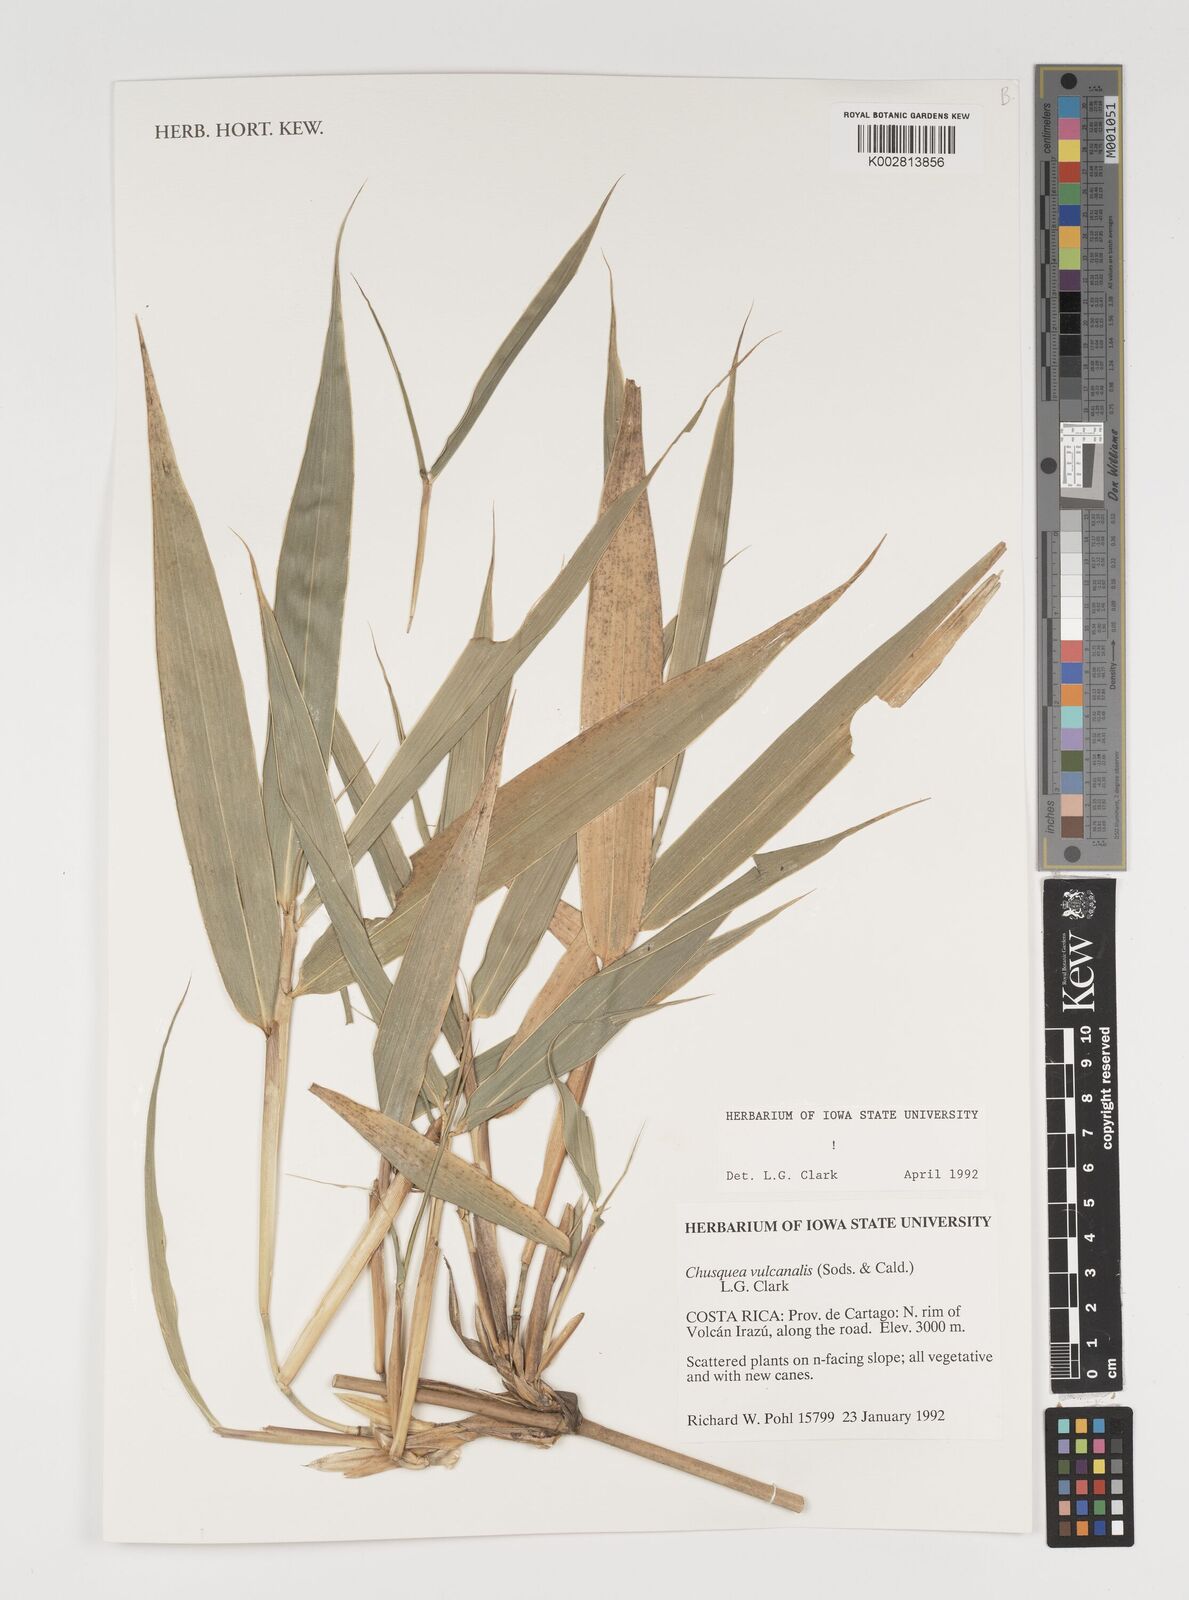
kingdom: Plantae
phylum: Tracheophyta
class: Liliopsida
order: Poales
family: Poaceae
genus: Chusquea
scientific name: Chusquea vulcanalis
